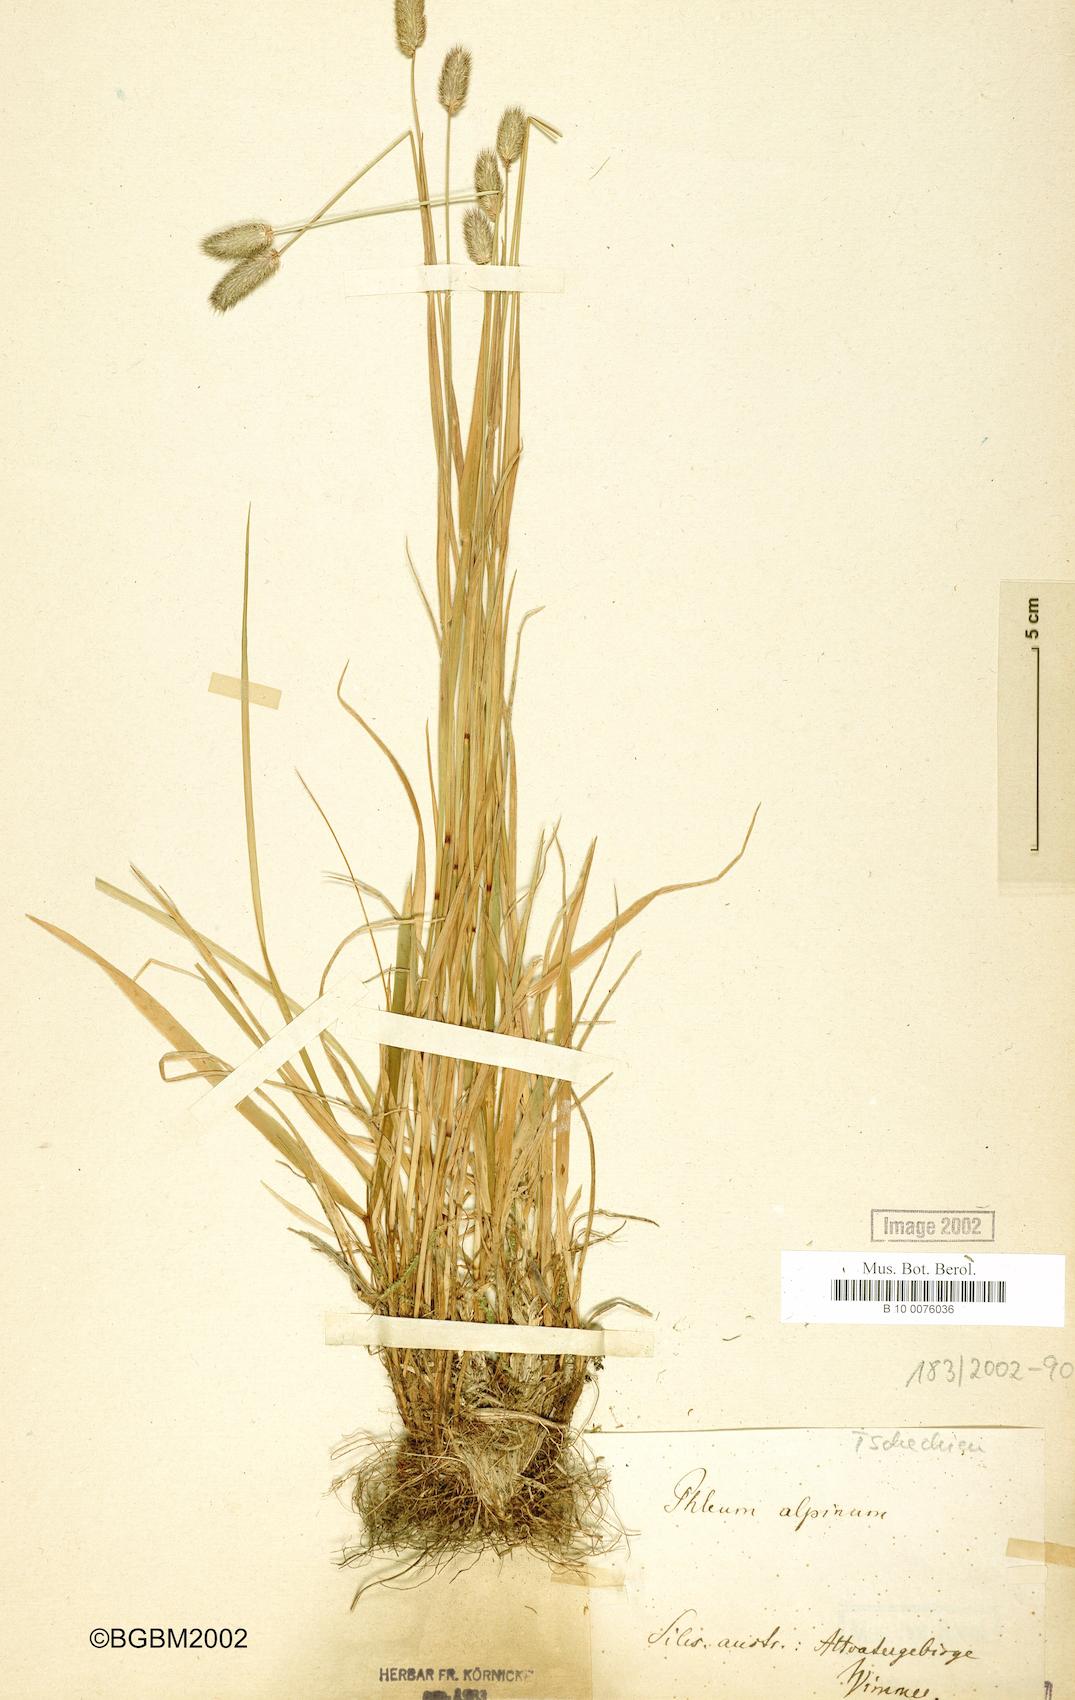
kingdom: Plantae
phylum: Tracheophyta
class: Liliopsida
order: Poales
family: Poaceae
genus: Phleum
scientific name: Phleum alpinum
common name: Alpine cat's-tail
